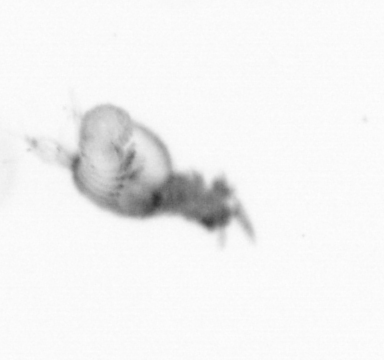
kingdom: Animalia
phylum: Annelida
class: Polychaeta
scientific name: Polychaeta
